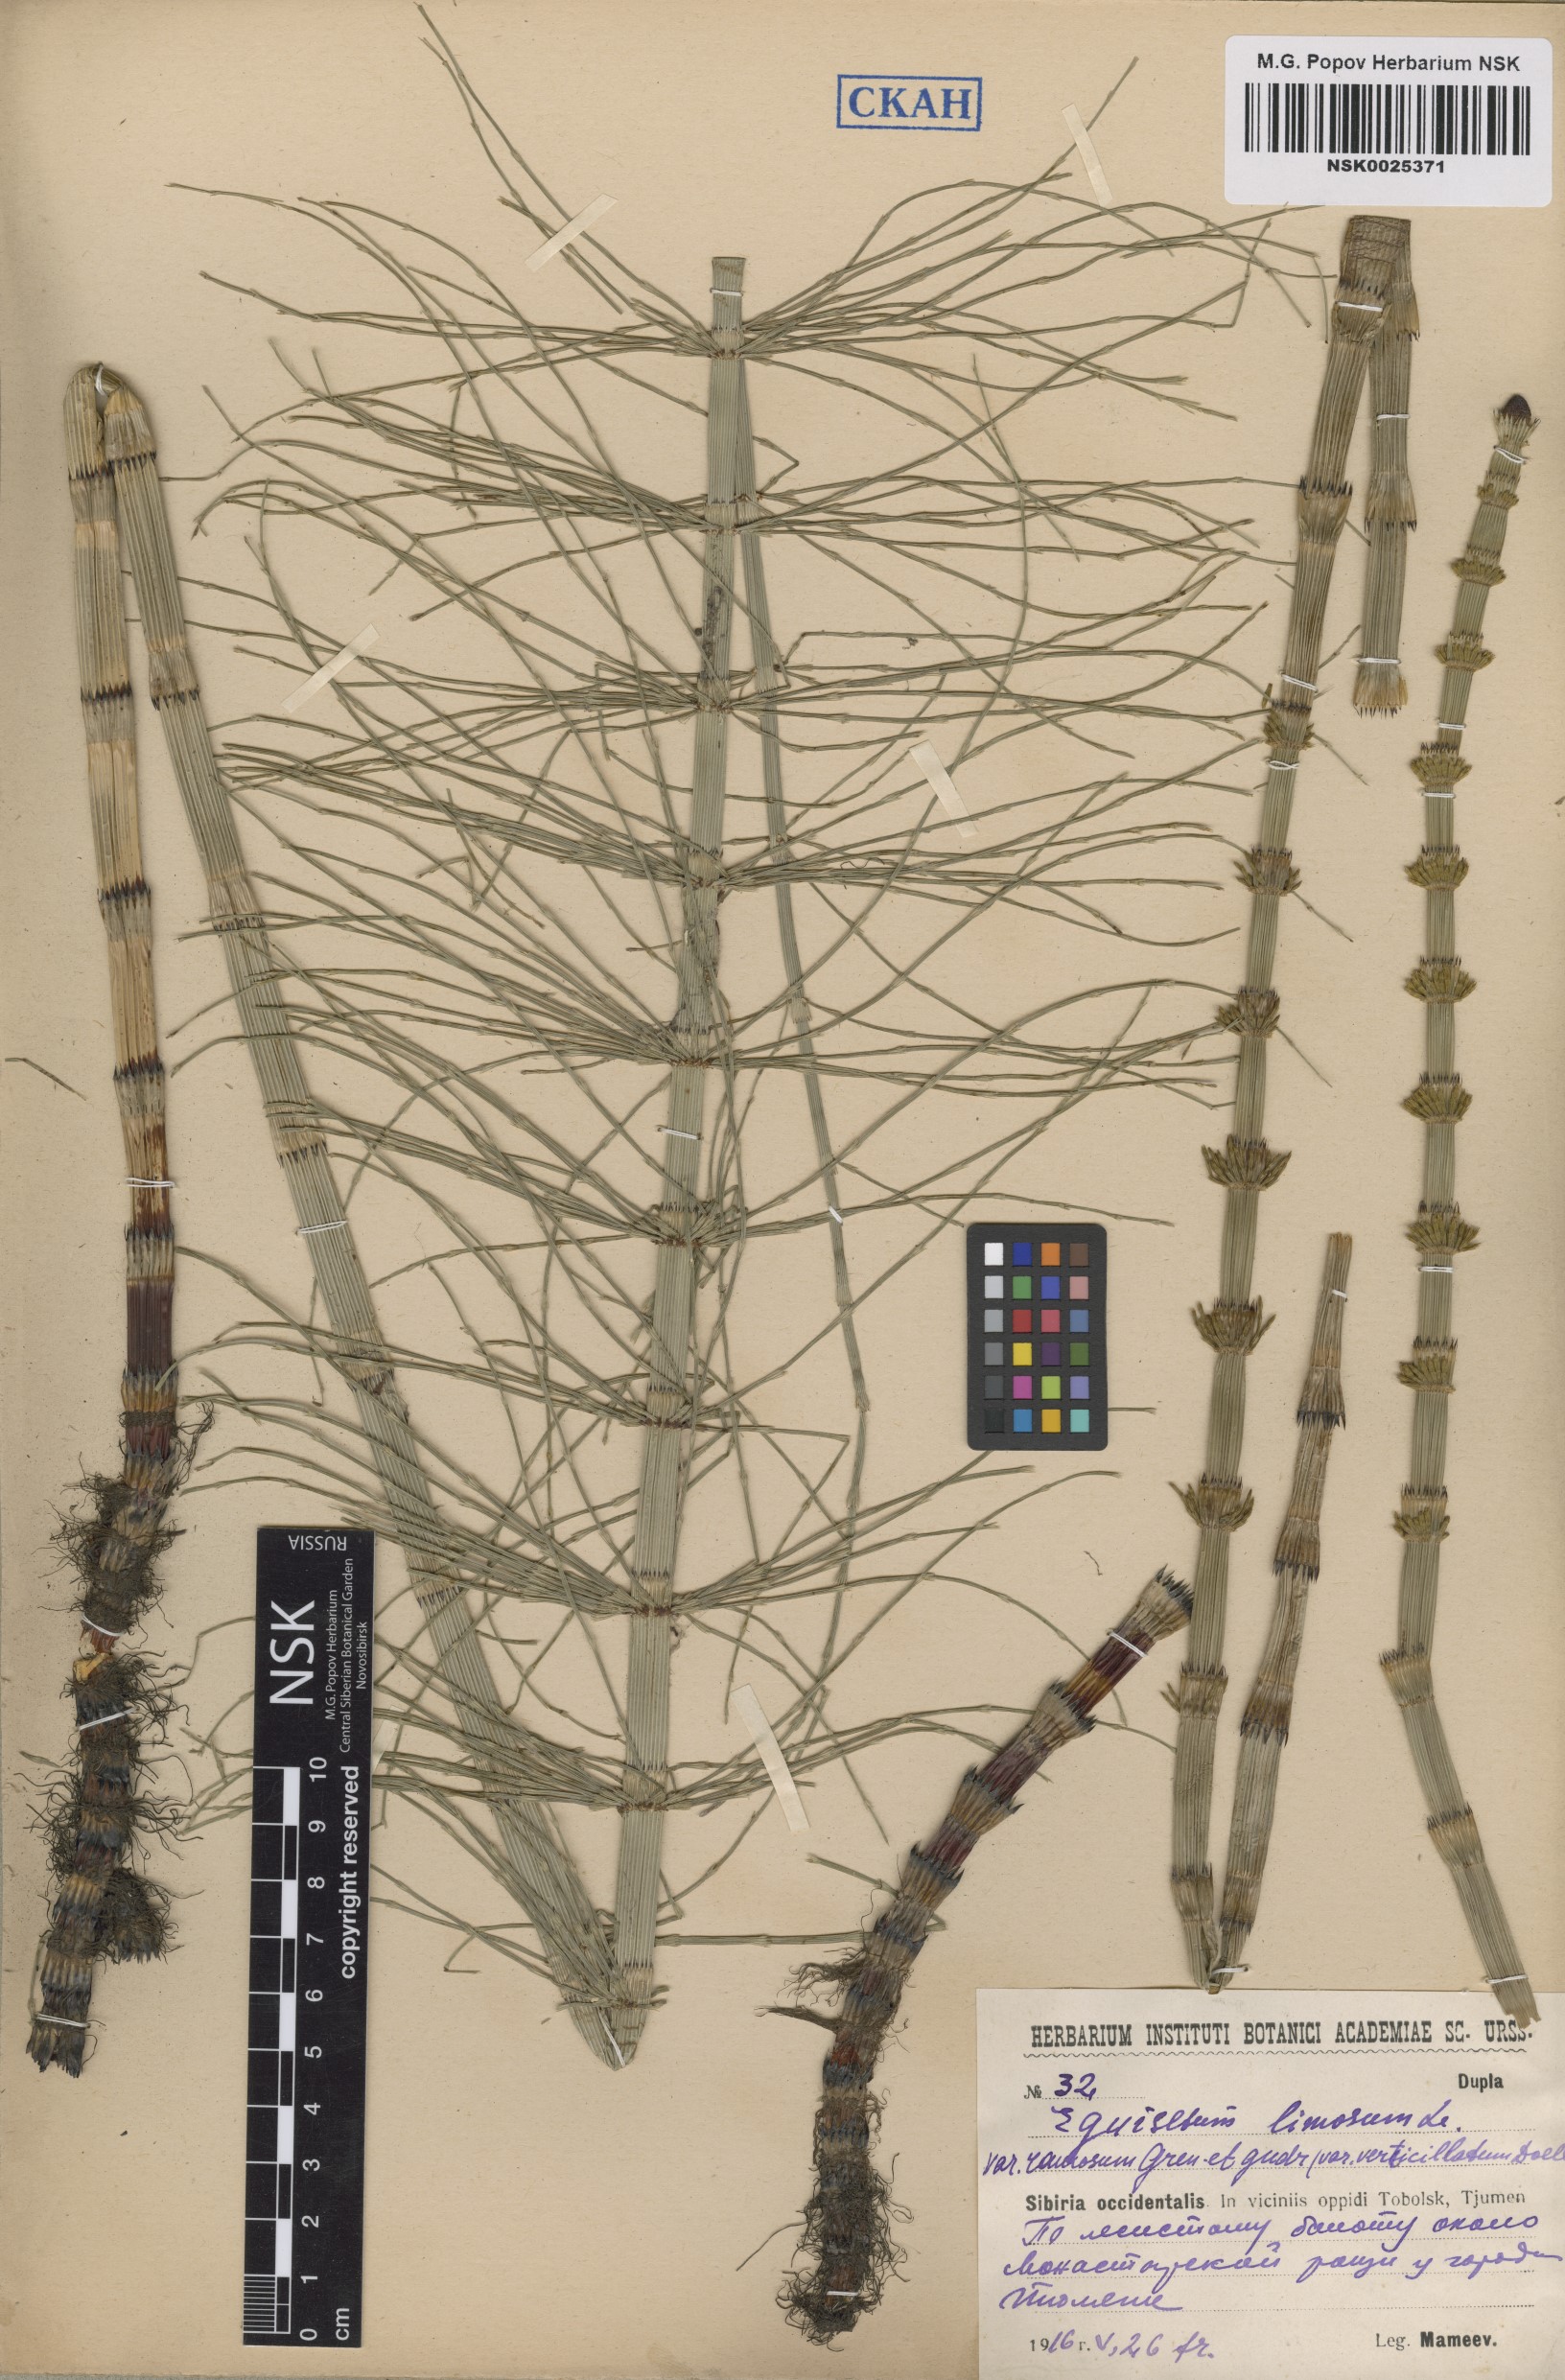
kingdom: Plantae
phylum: Tracheophyta
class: Polypodiopsida
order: Equisetales
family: Equisetaceae
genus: Equisetum
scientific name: Equisetum fluviatile
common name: Water horsetail
